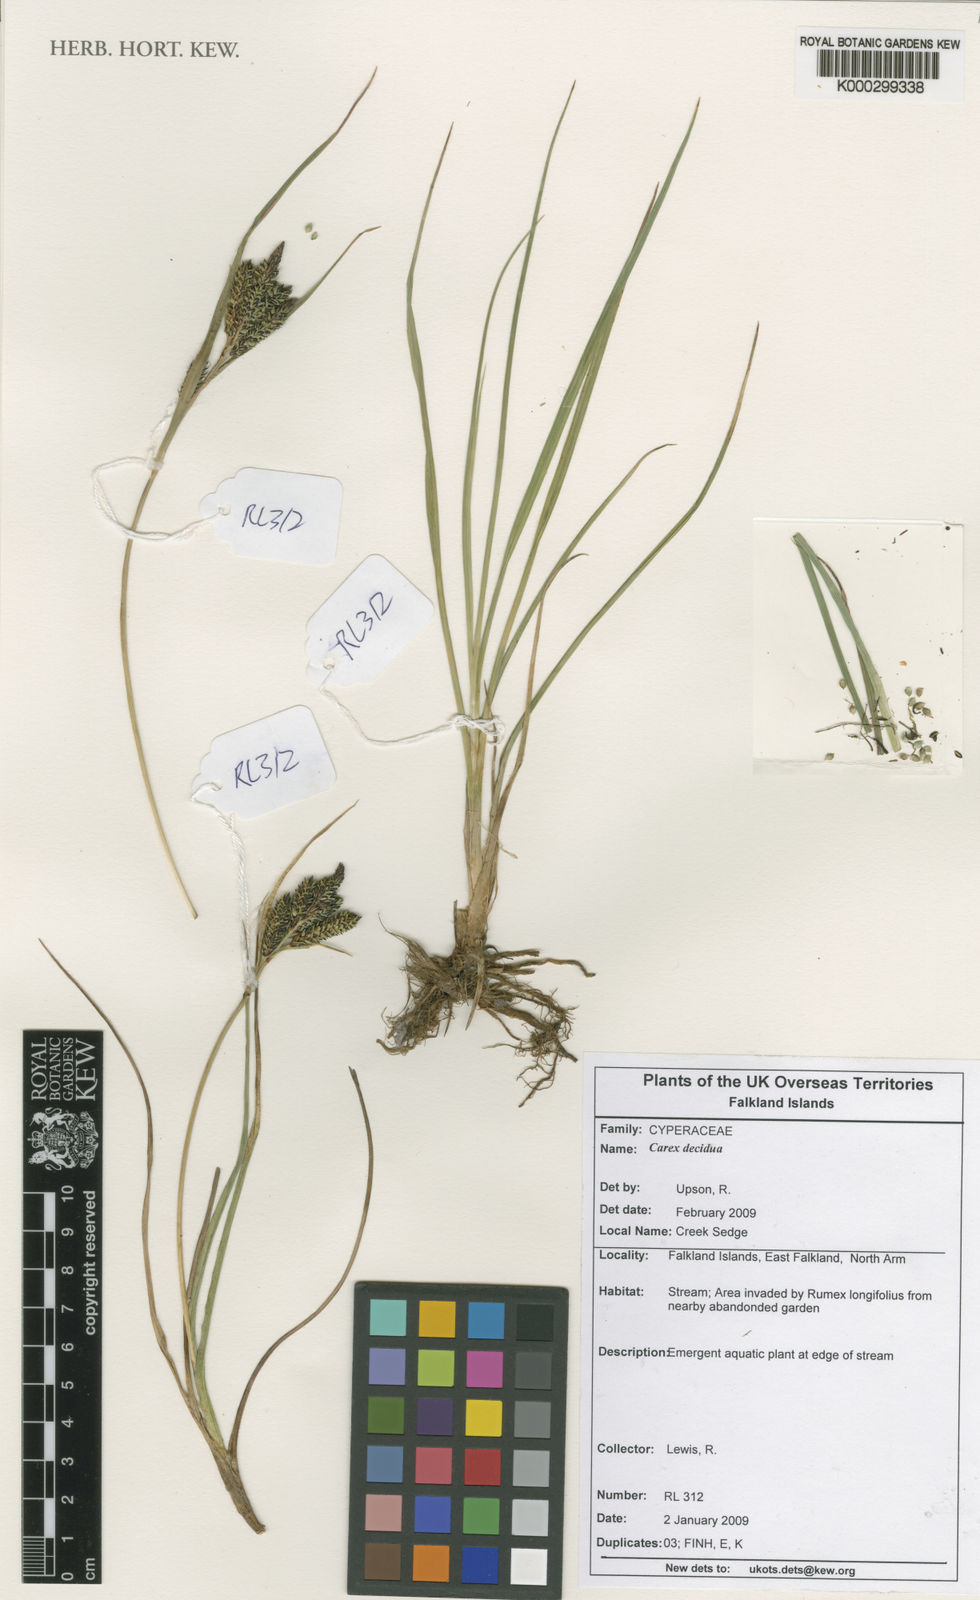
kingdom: Plantae
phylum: Tracheophyta
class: Liliopsida
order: Poales
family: Cyperaceae
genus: Carex
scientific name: Carex decidua
